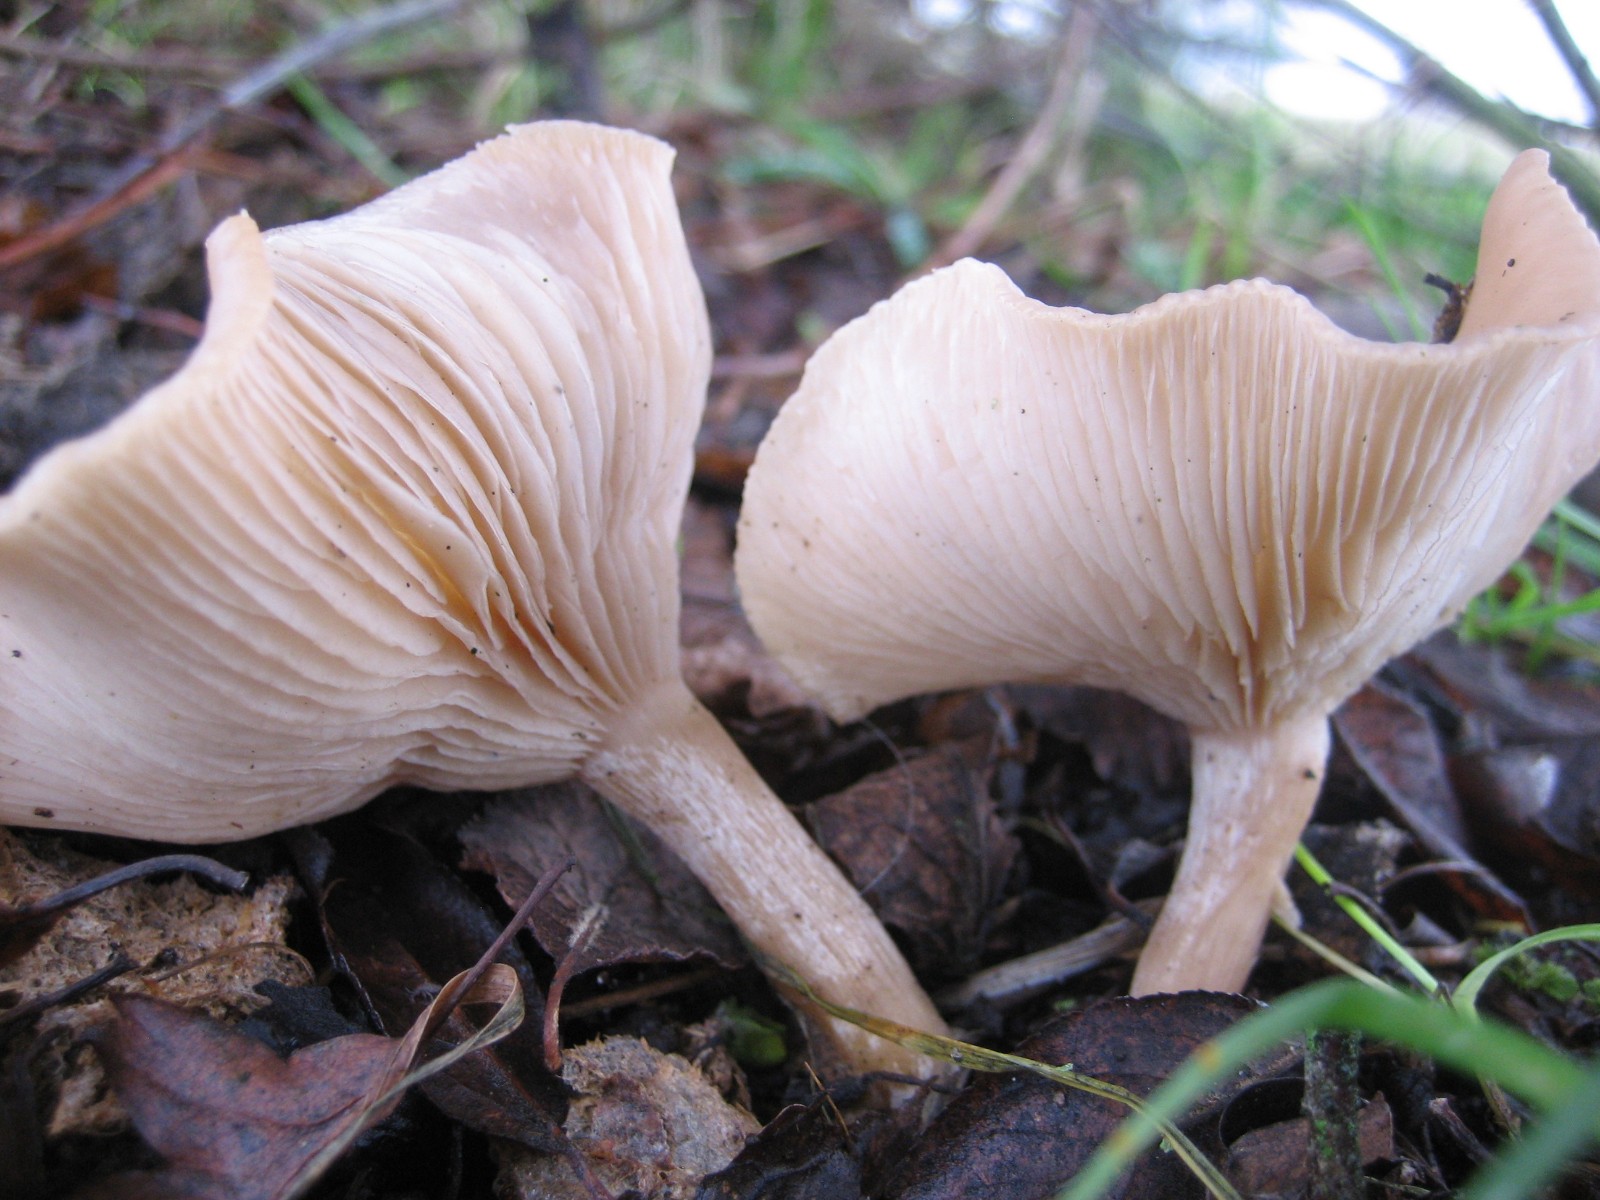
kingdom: Fungi
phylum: Basidiomycota
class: Agaricomycetes
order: Agaricales
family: Tricholomataceae
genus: Clitocybe
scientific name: Clitocybe
